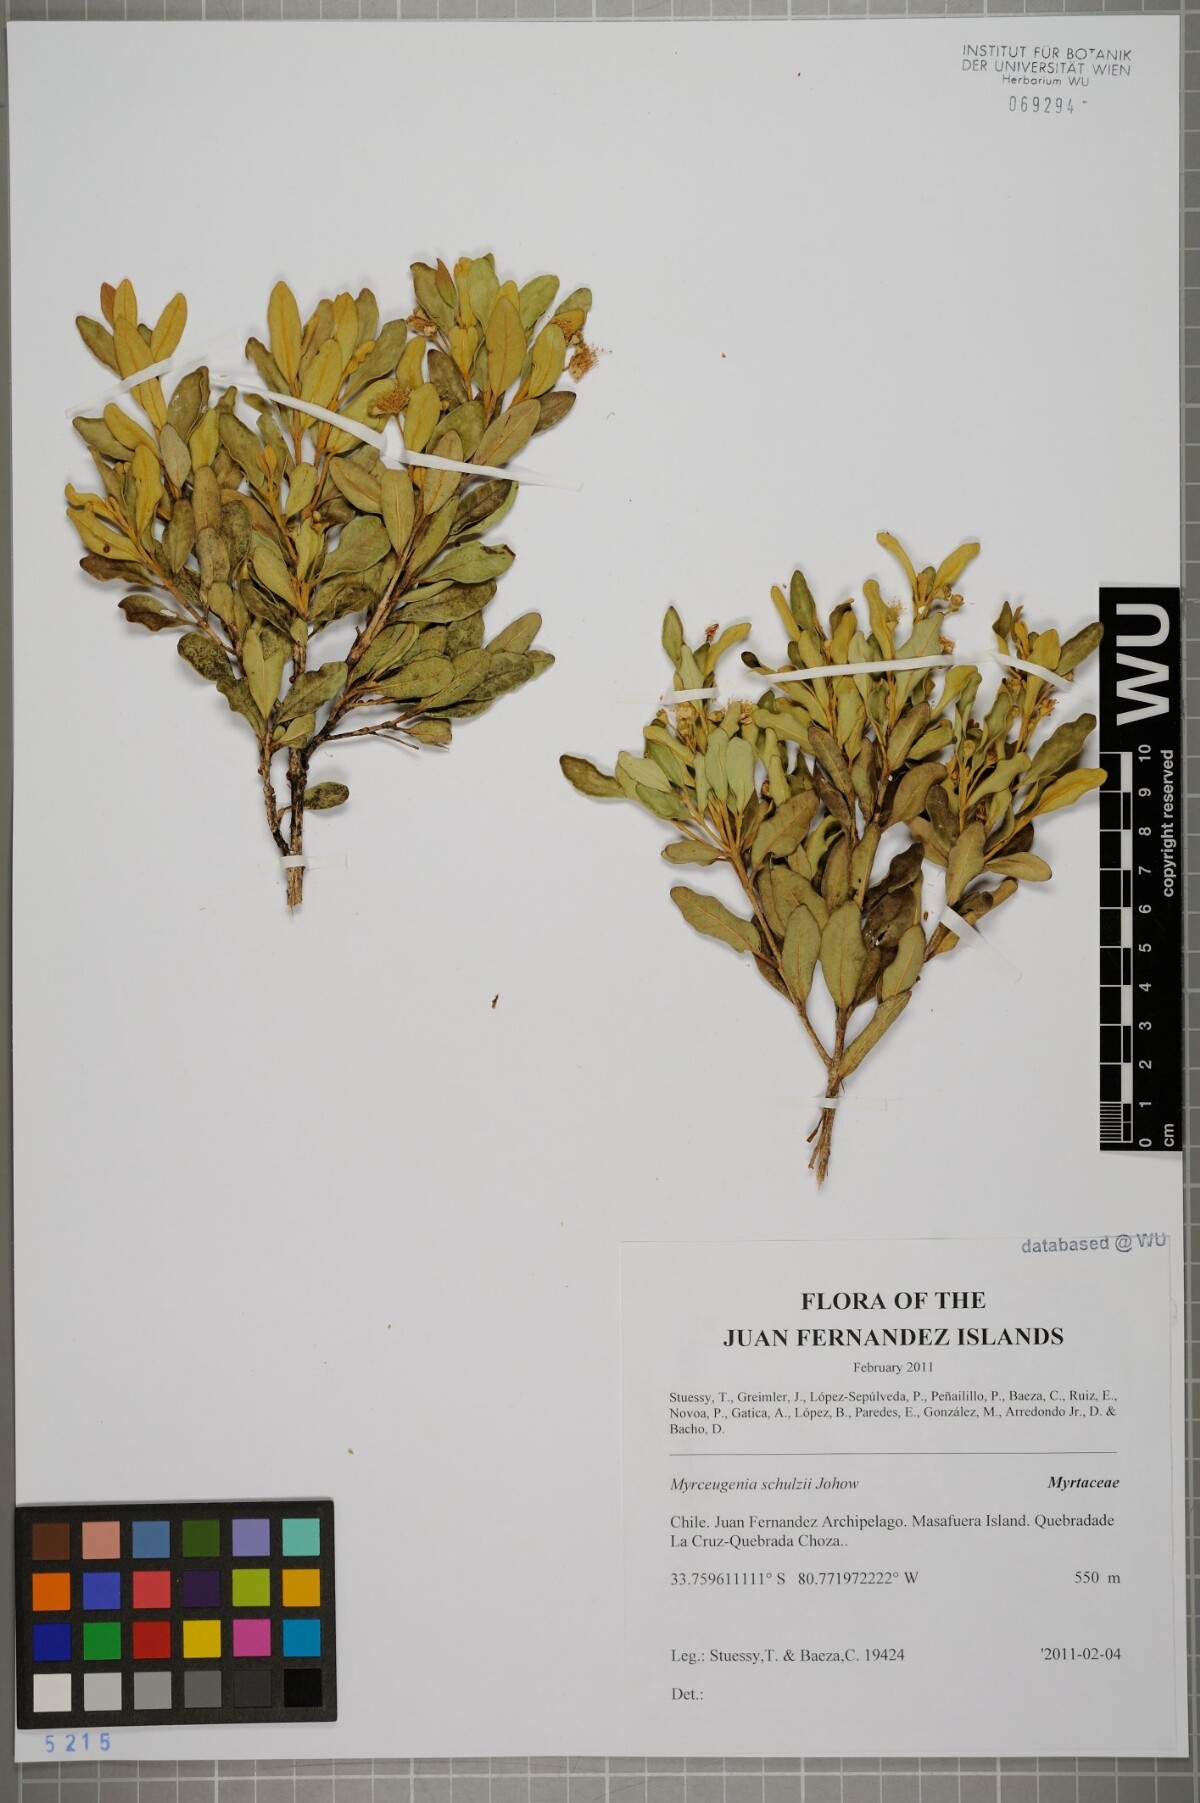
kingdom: Plantae
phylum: Tracheophyta
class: Magnoliopsida
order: Myrtales
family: Myrtaceae
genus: Myrceugenia
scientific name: Myrceugenia schulzei
